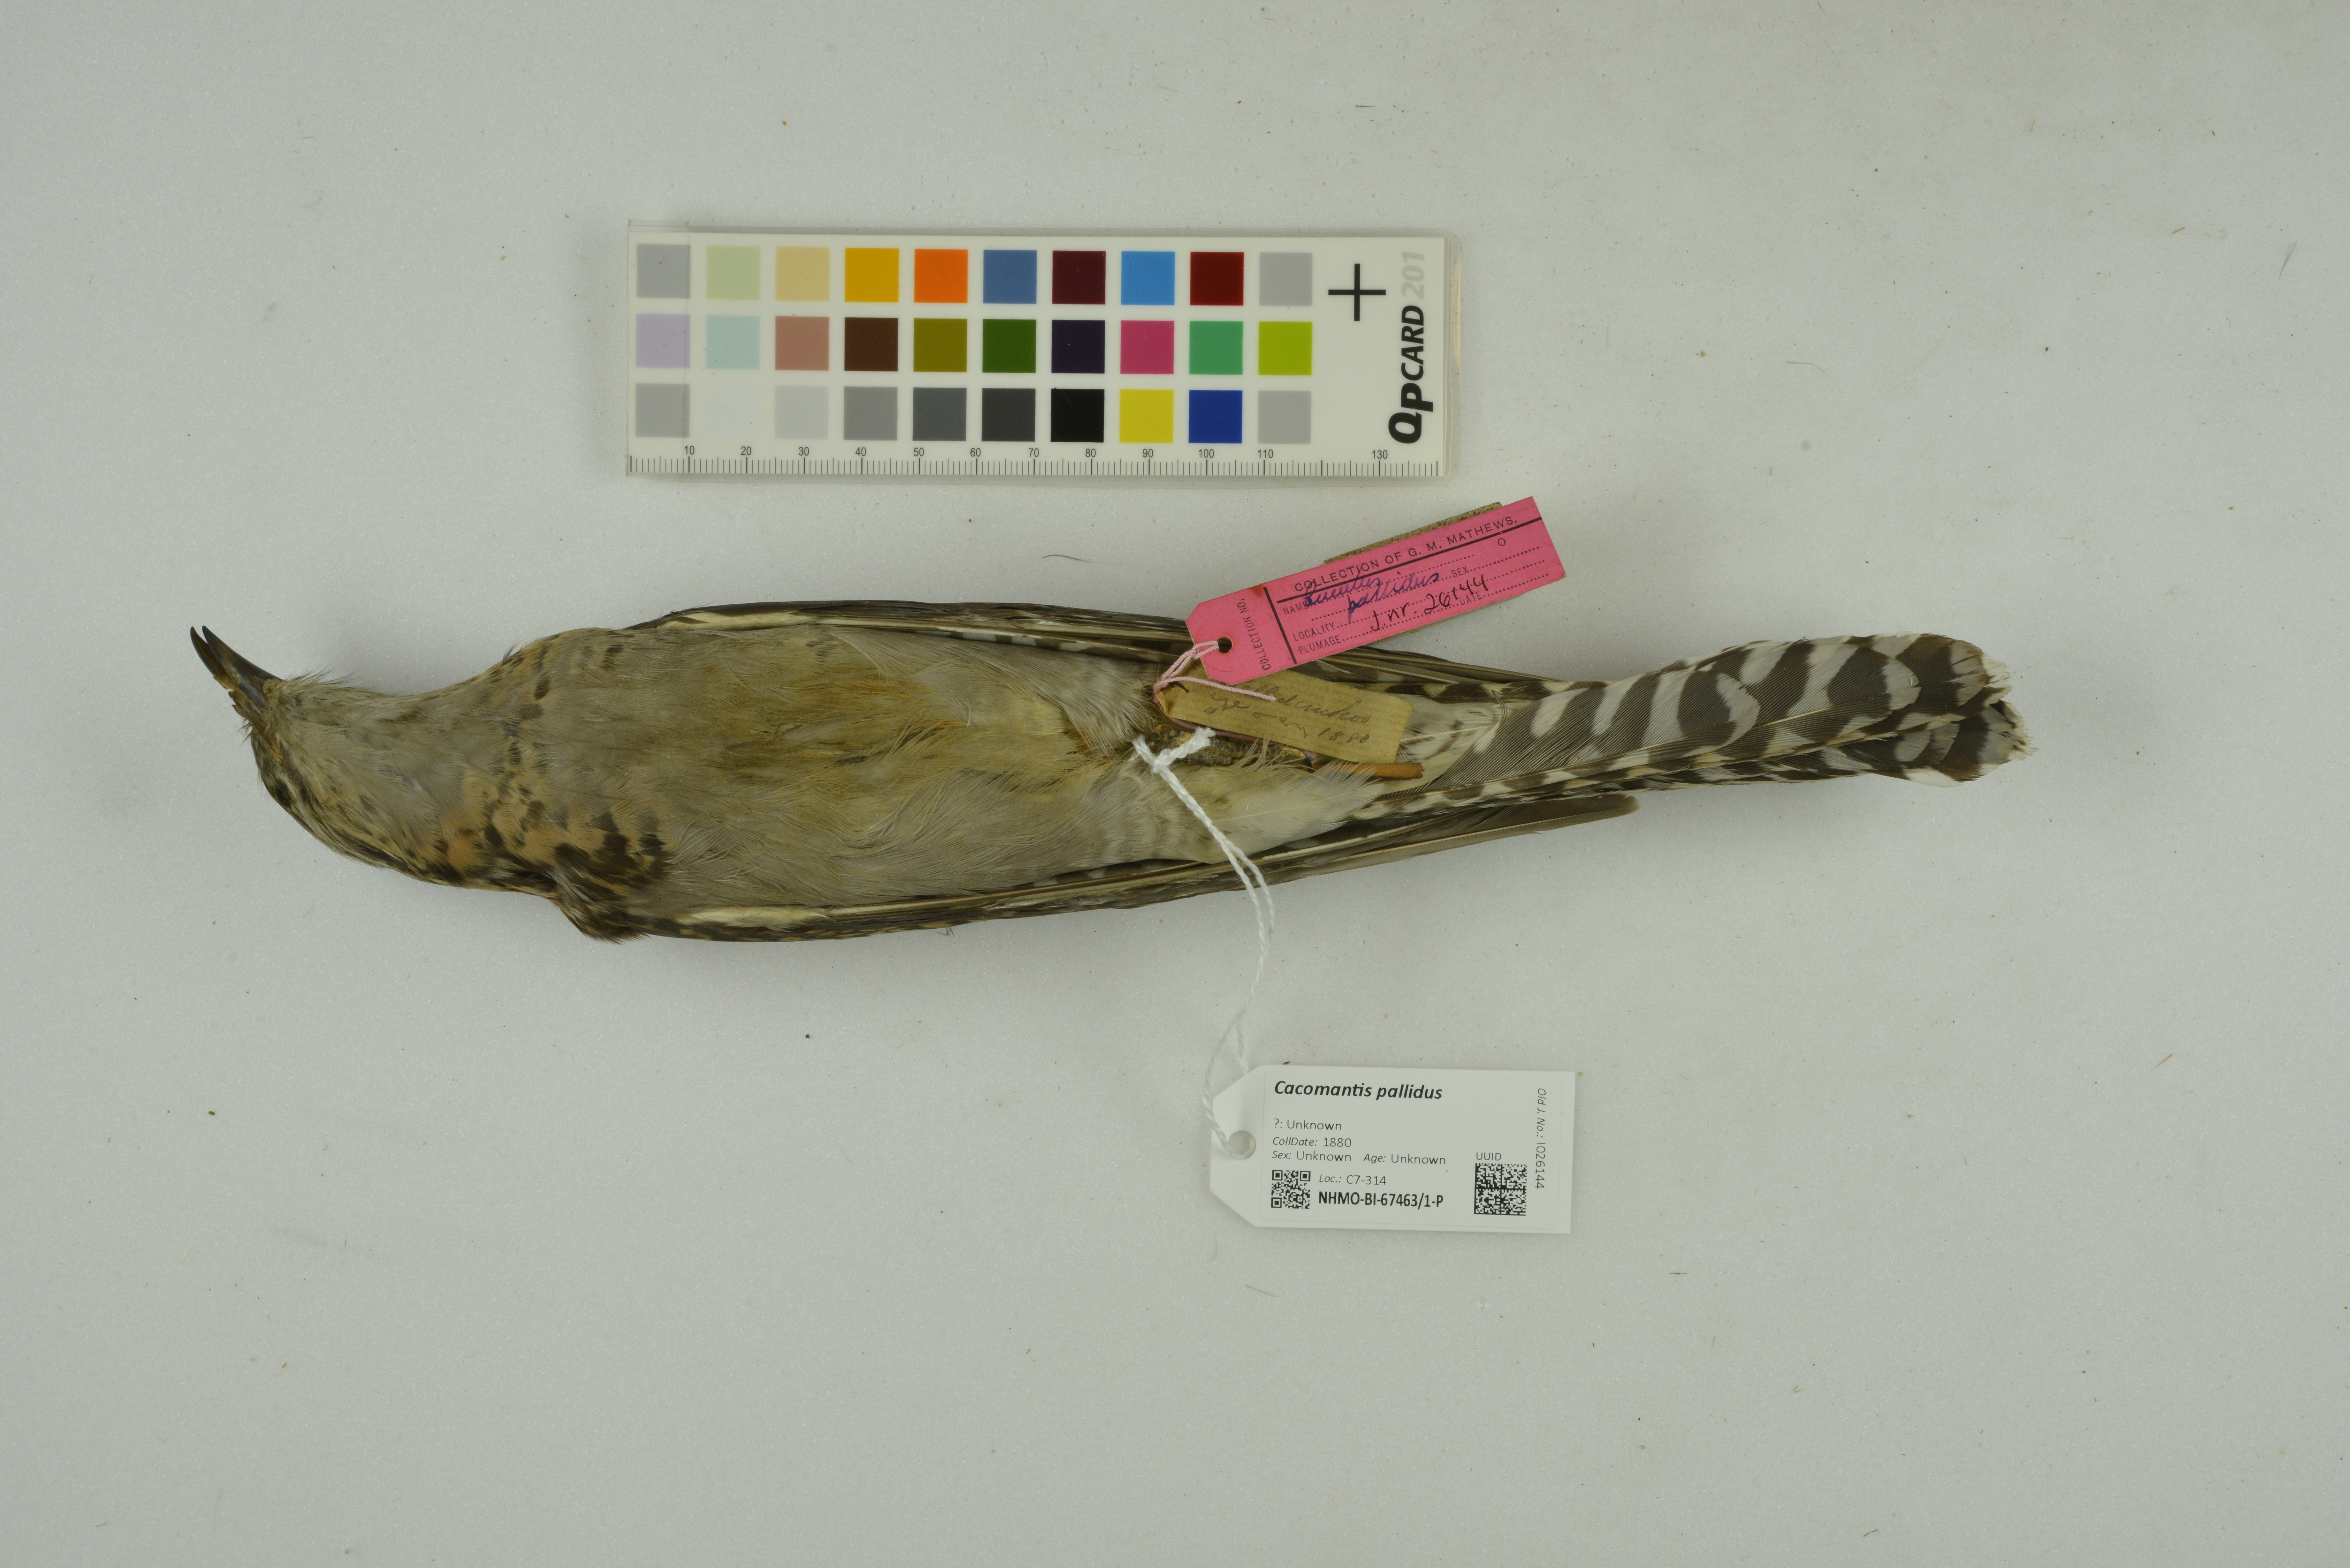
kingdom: Animalia
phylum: Chordata
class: Aves
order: Cuculiformes
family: Cuculidae
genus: Cuculus
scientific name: Cuculus pallidus
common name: Pallid cuckoo
